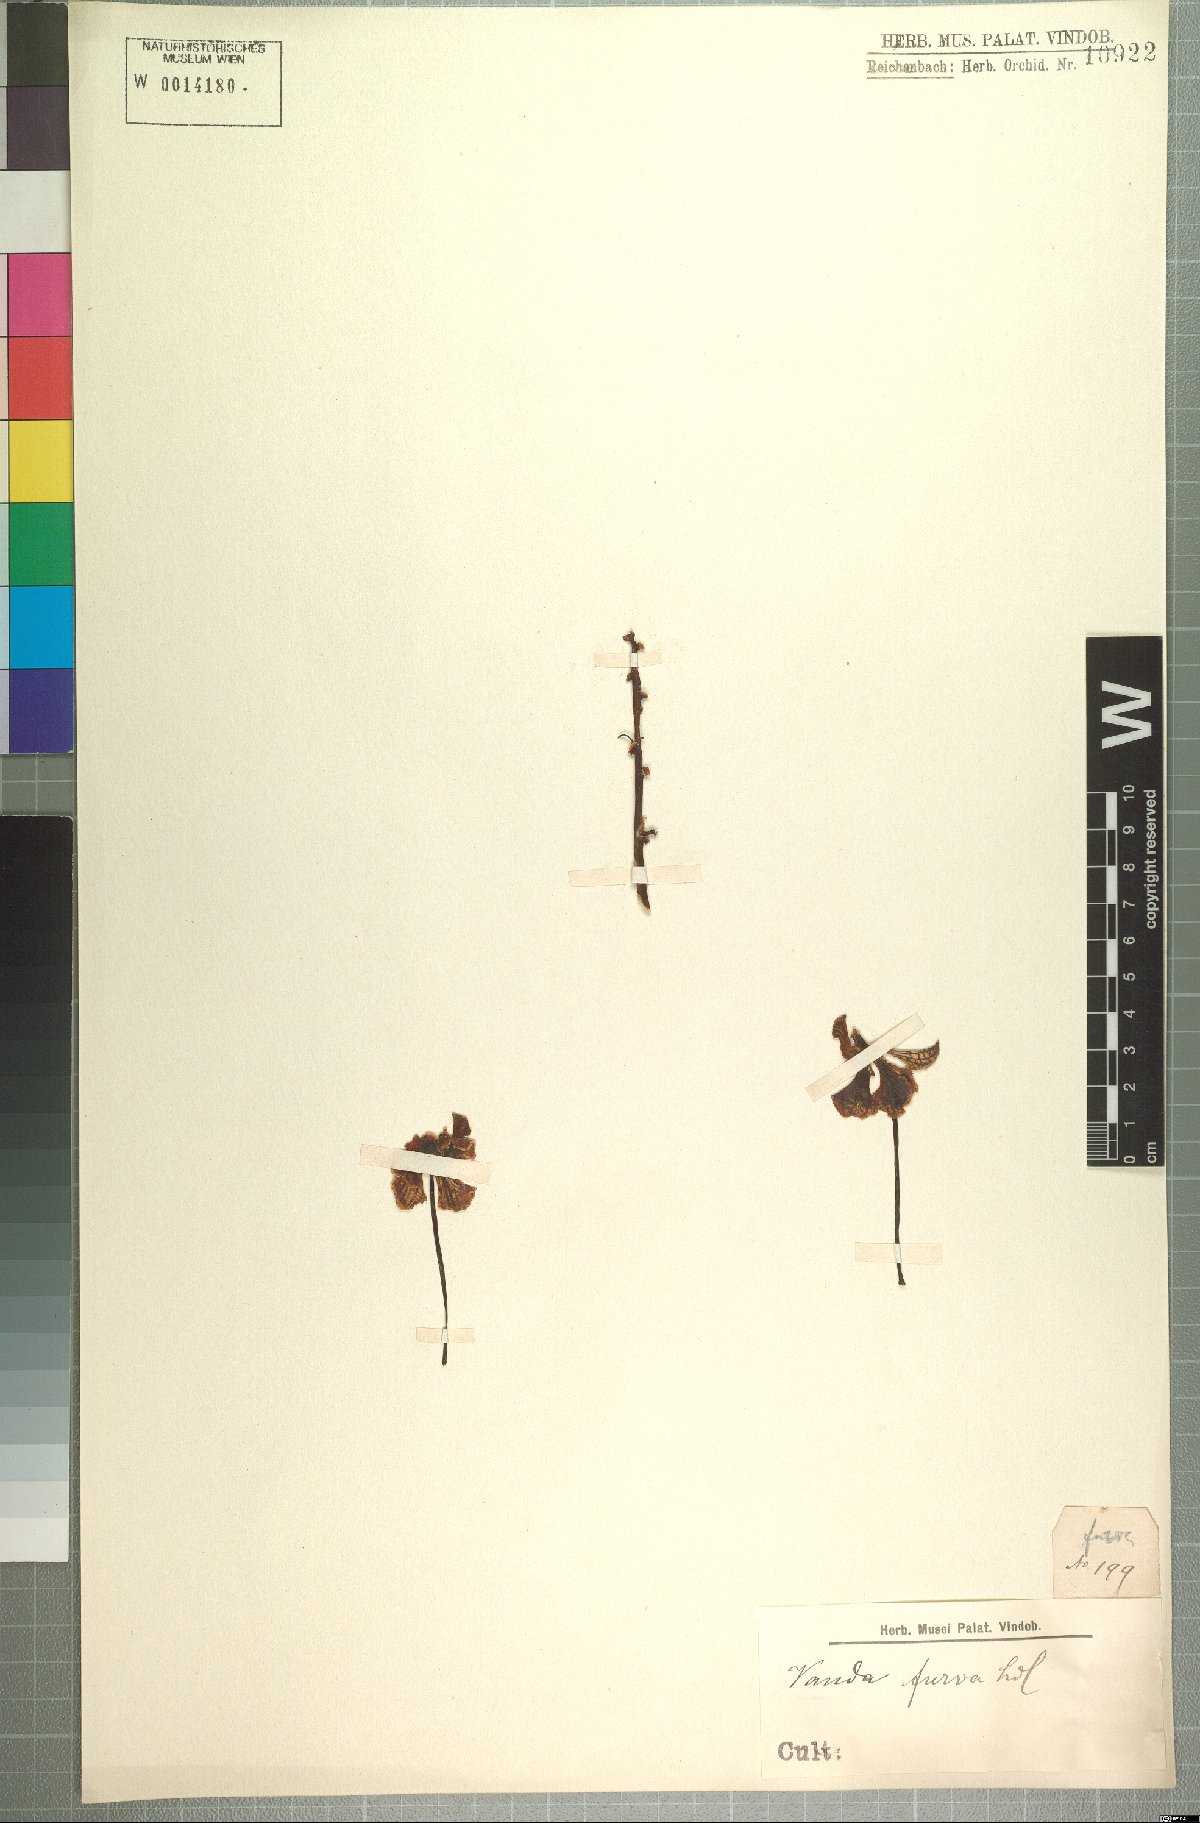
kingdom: Plantae
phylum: Tracheophyta
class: Liliopsida
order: Asparagales
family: Orchidaceae
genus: Vanda
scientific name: Vanda furva
